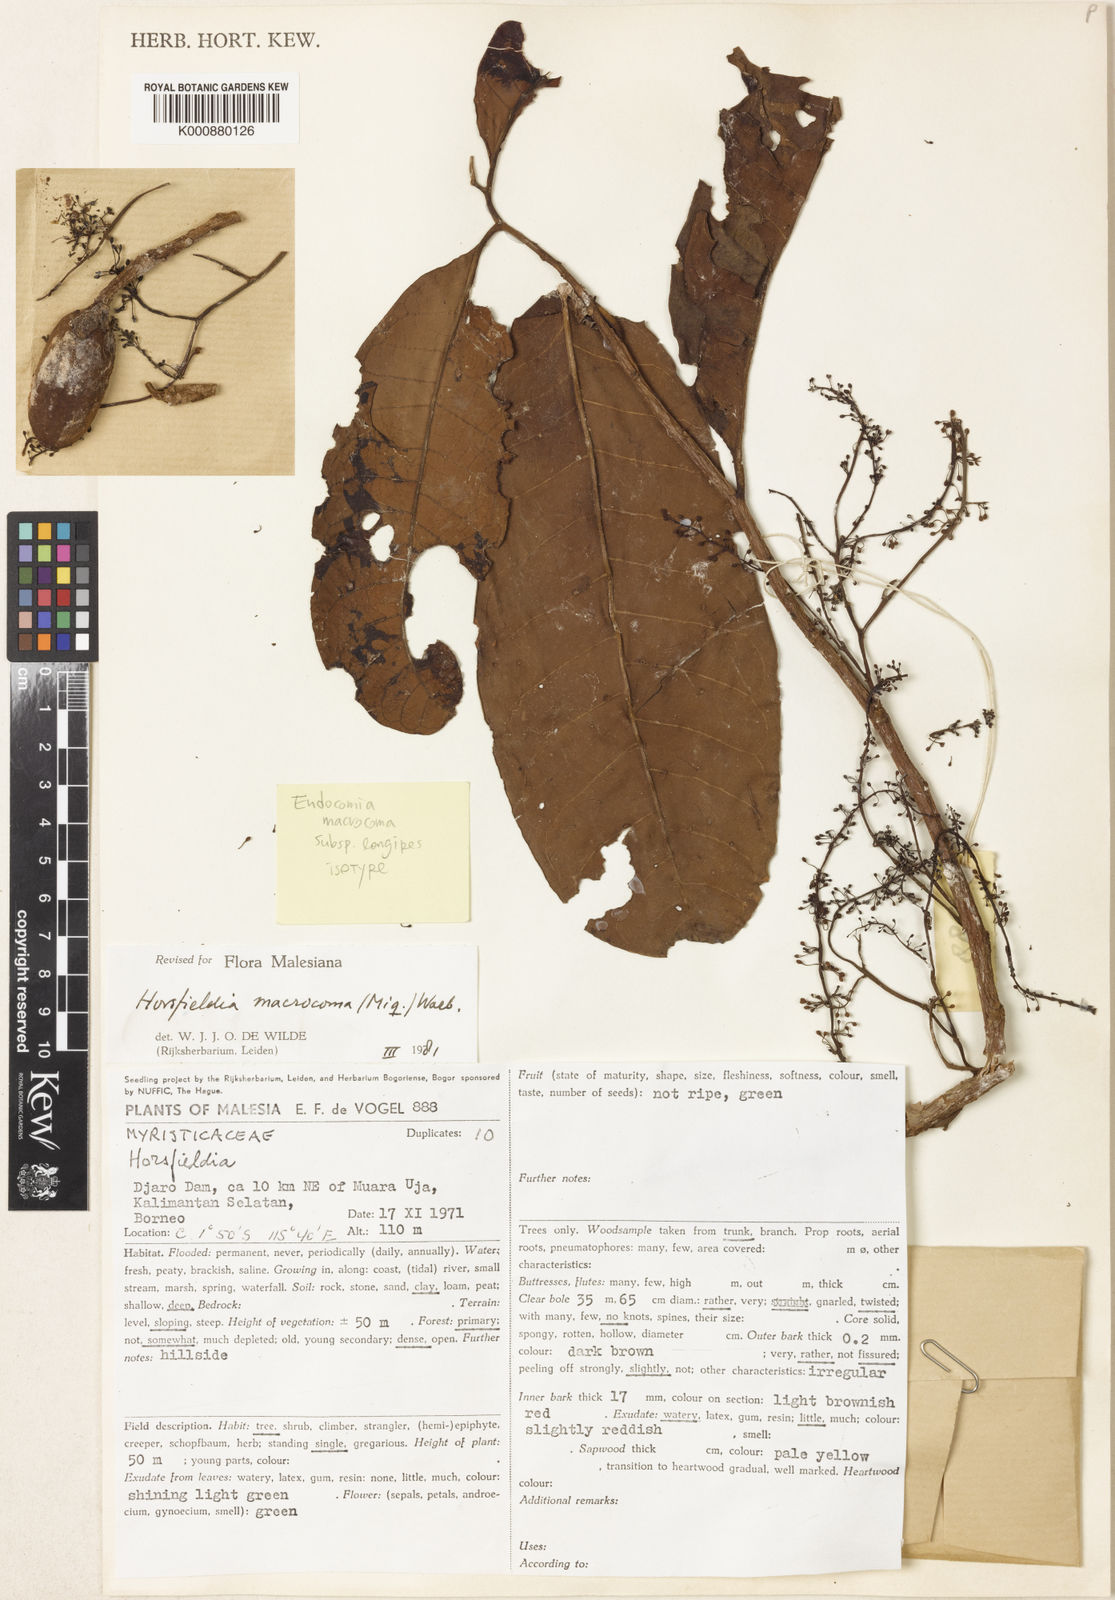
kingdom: Plantae
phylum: Tracheophyta
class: Magnoliopsida
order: Magnoliales
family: Myristicaceae
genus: Endocomia
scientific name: Endocomia macrocoma
